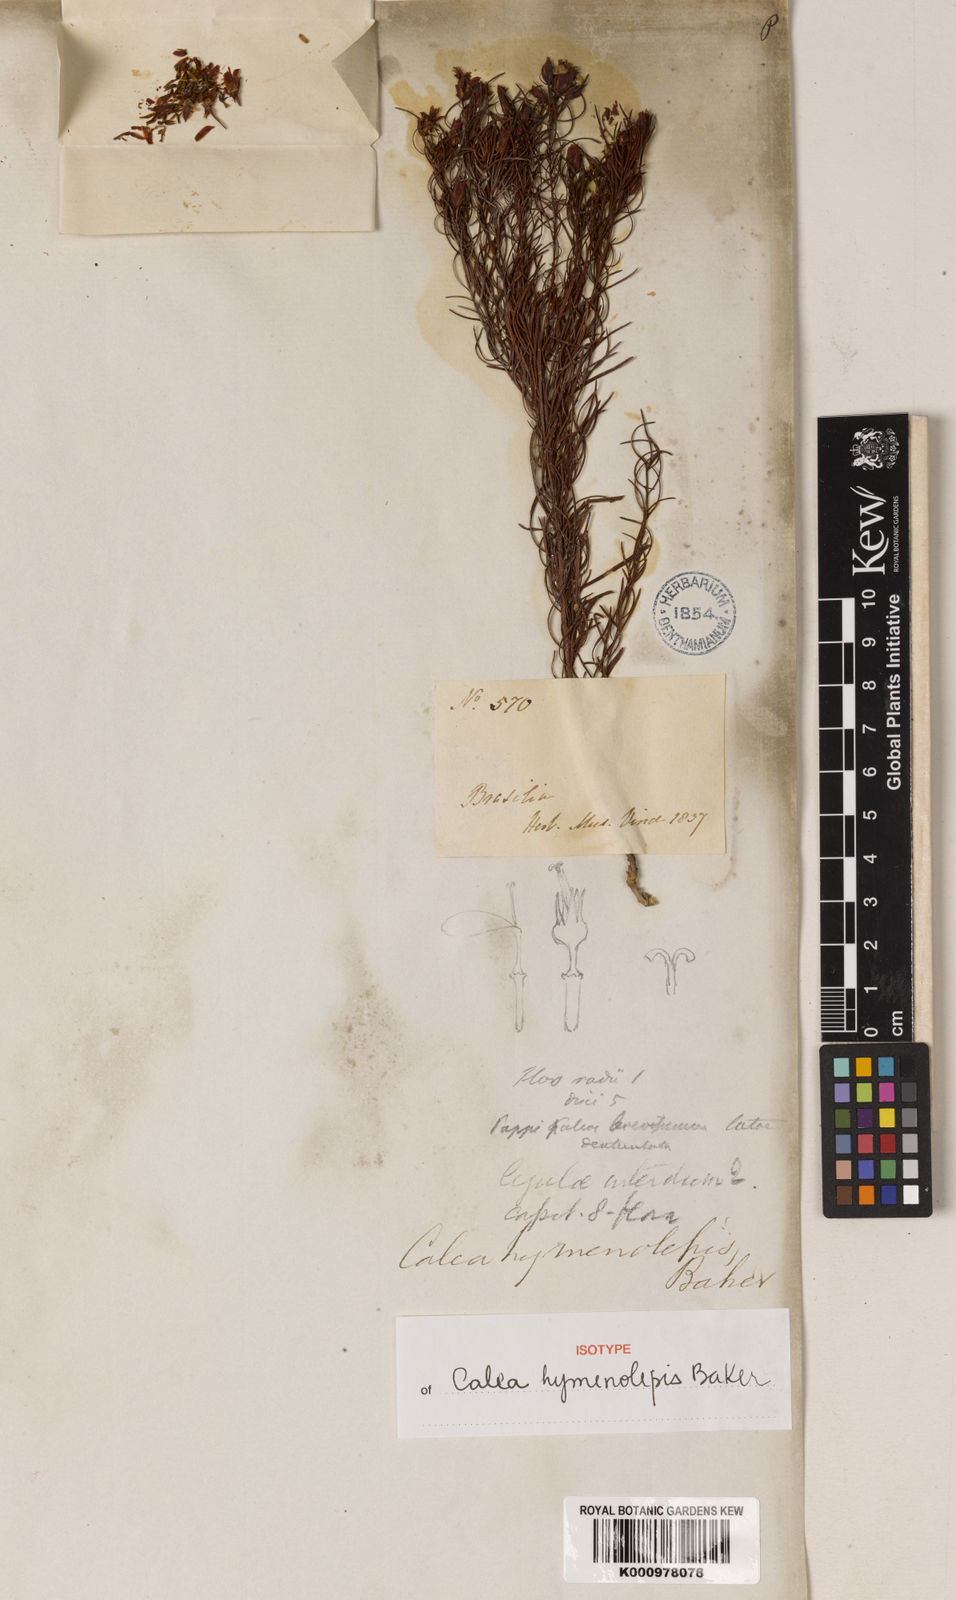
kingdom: Plantae
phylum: Tracheophyta
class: Magnoliopsida
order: Asterales
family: Asteraceae
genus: Calea
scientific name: Calea hymenolepis
